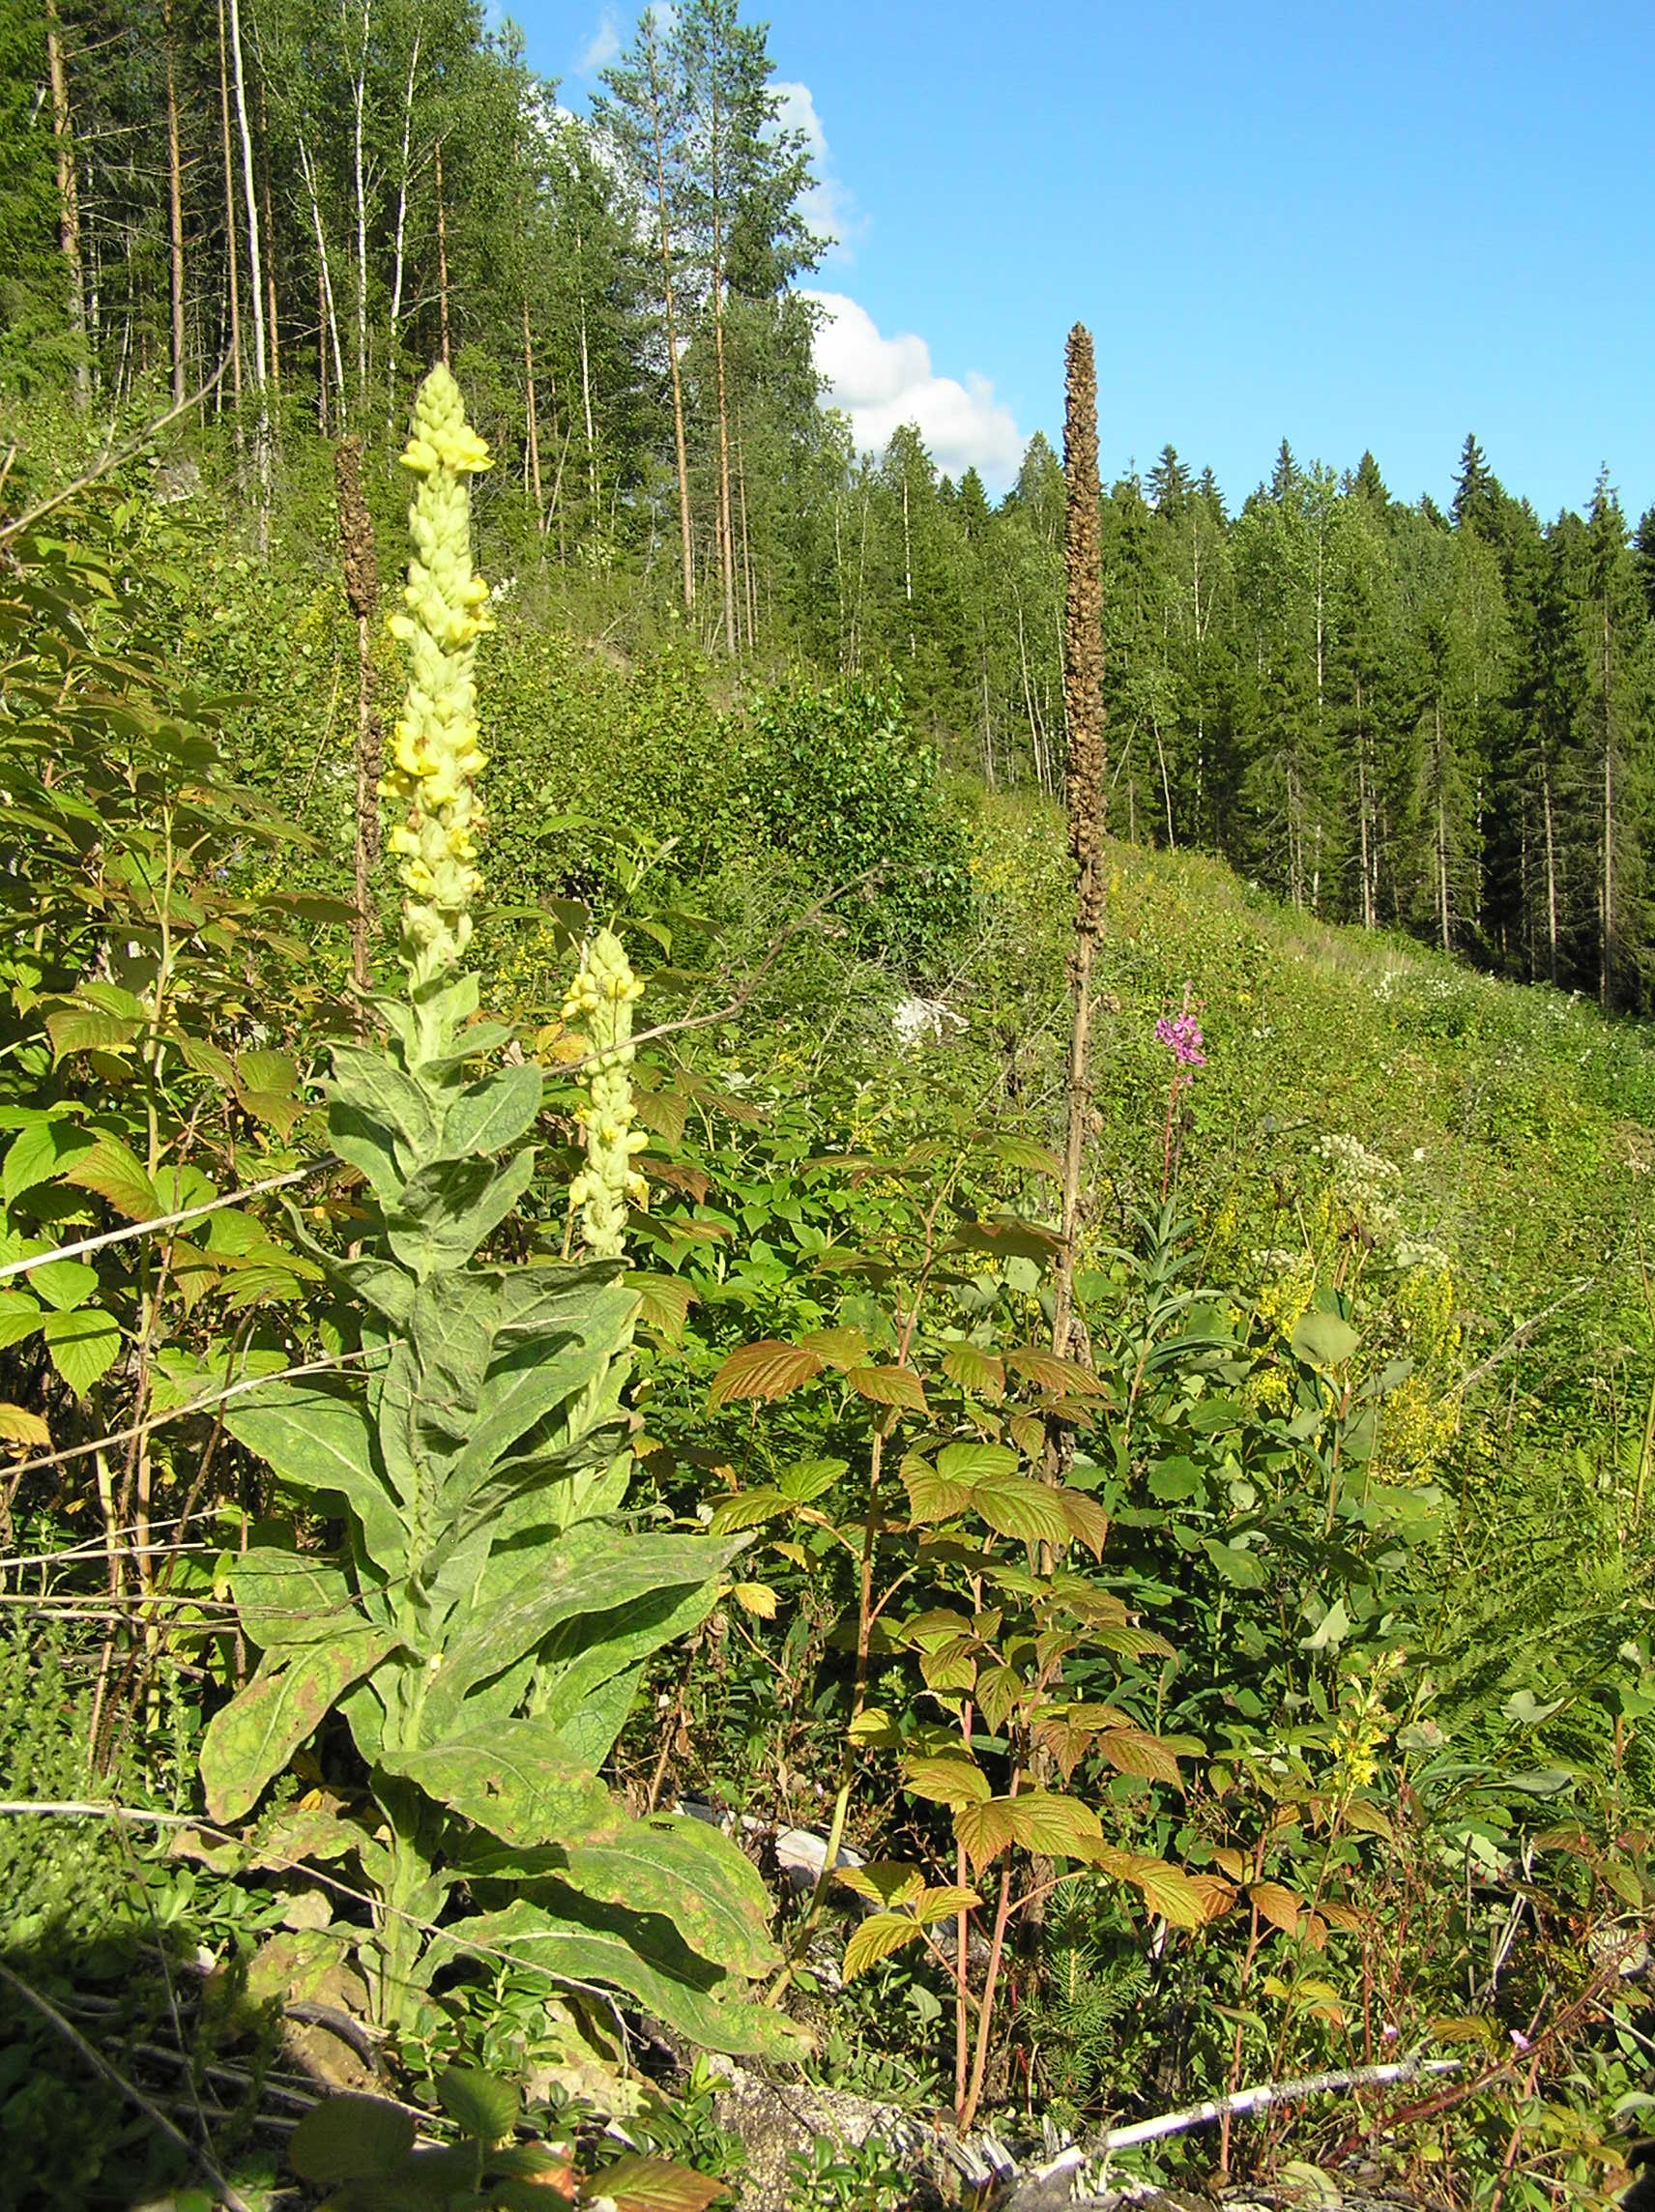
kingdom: Plantae
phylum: Tracheophyta
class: Magnoliopsida
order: Lamiales
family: Scrophulariaceae
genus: Verbascum
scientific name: Verbascum thapsus
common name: Common mullein
